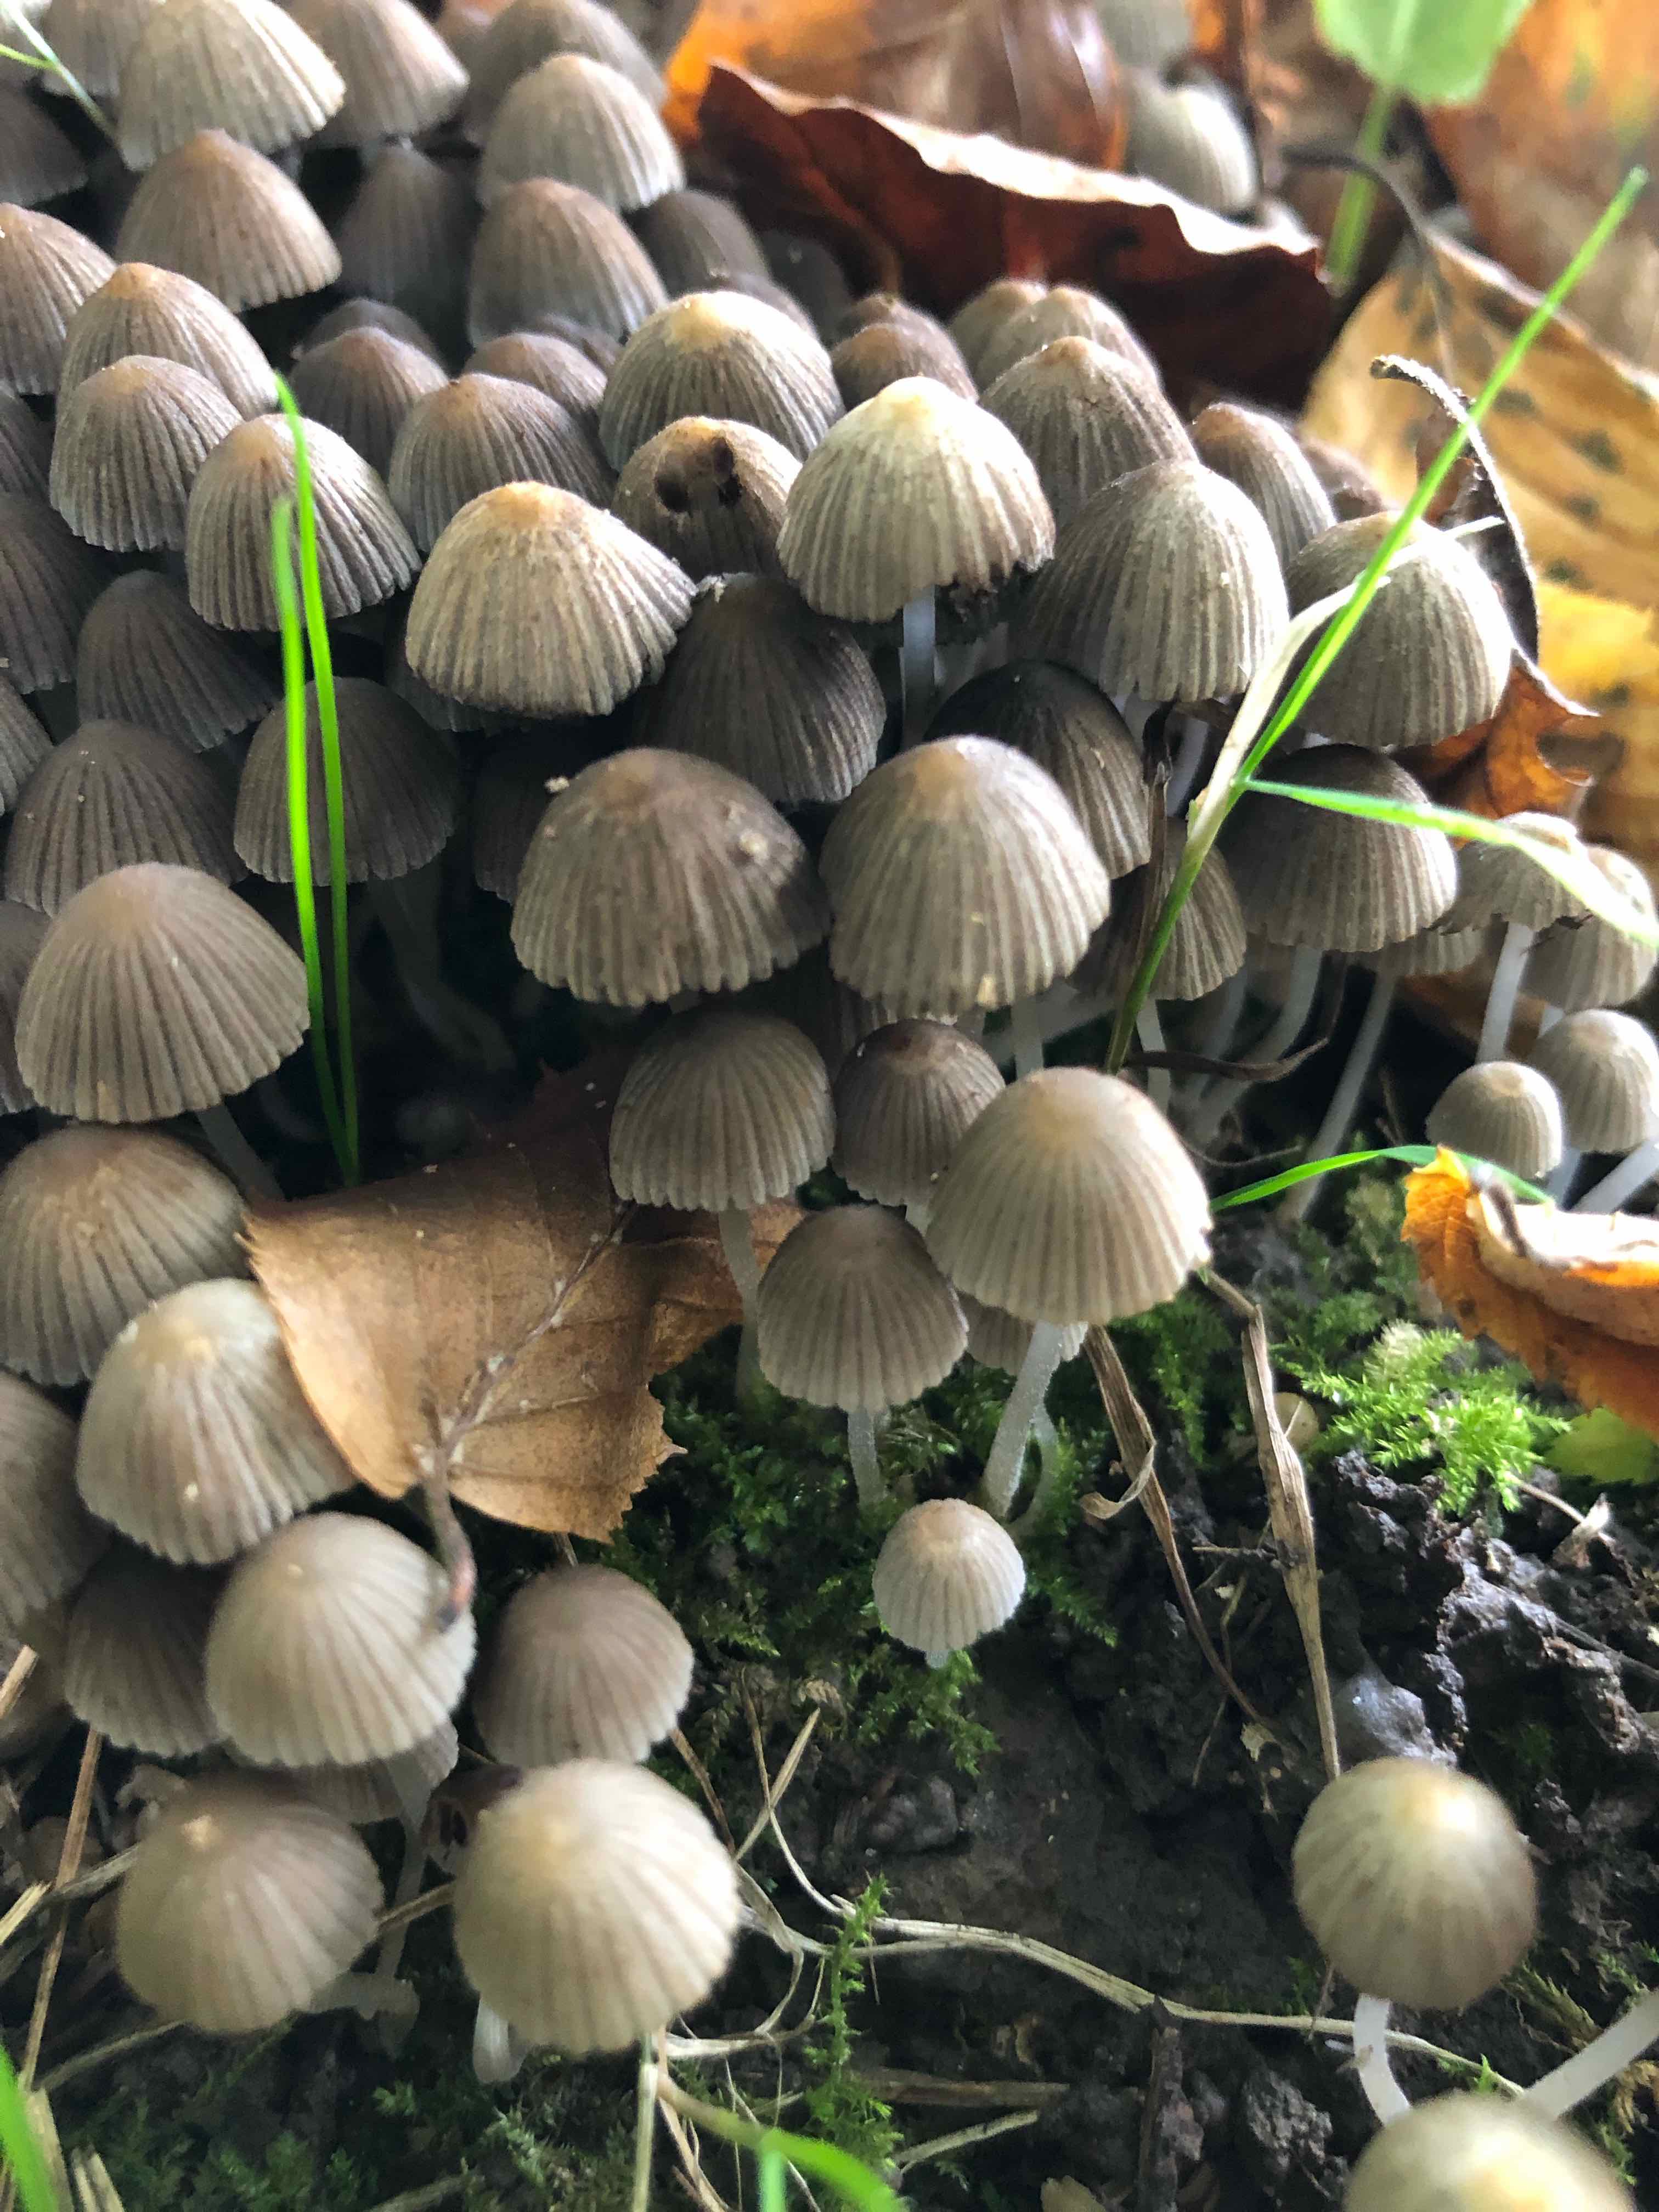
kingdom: Fungi
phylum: Basidiomycota
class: Agaricomycetes
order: Agaricales
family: Psathyrellaceae
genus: Coprinellus
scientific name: Coprinellus disseminatus
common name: bredsået blækhat
